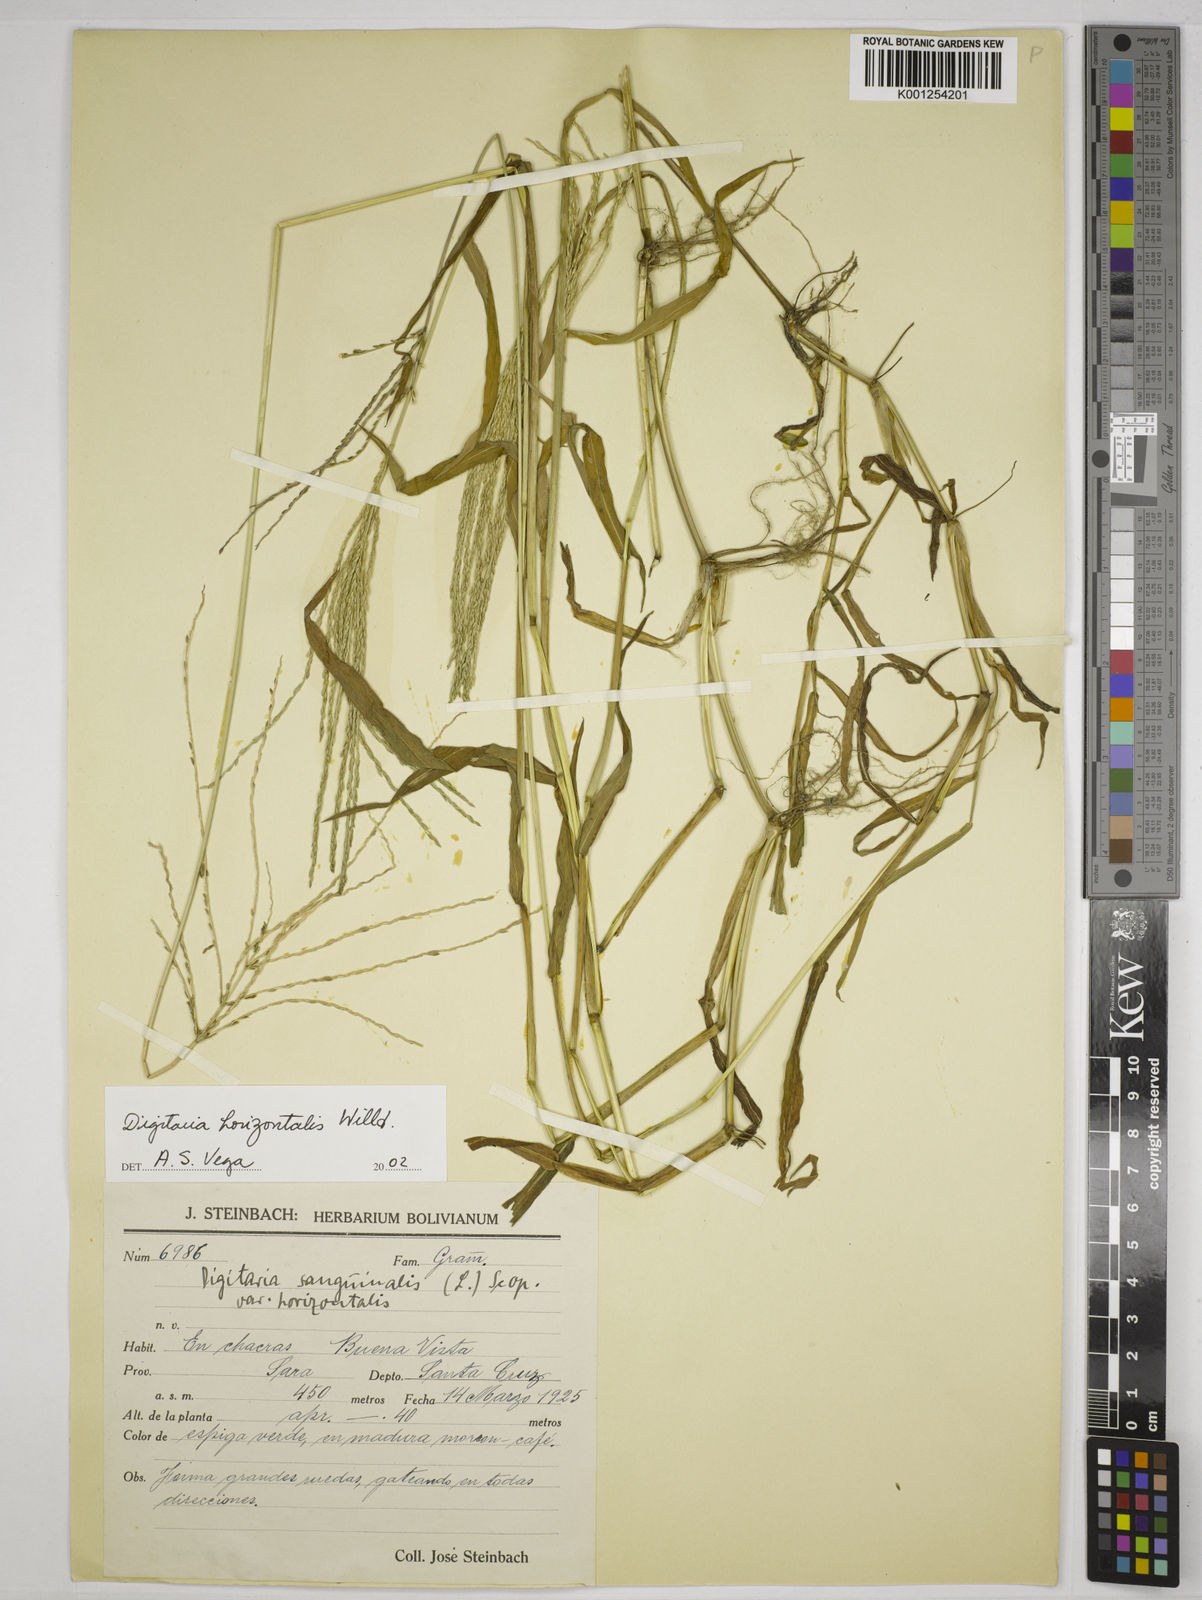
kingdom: Plantae
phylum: Tracheophyta
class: Liliopsida
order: Poales
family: Poaceae
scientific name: Poaceae
